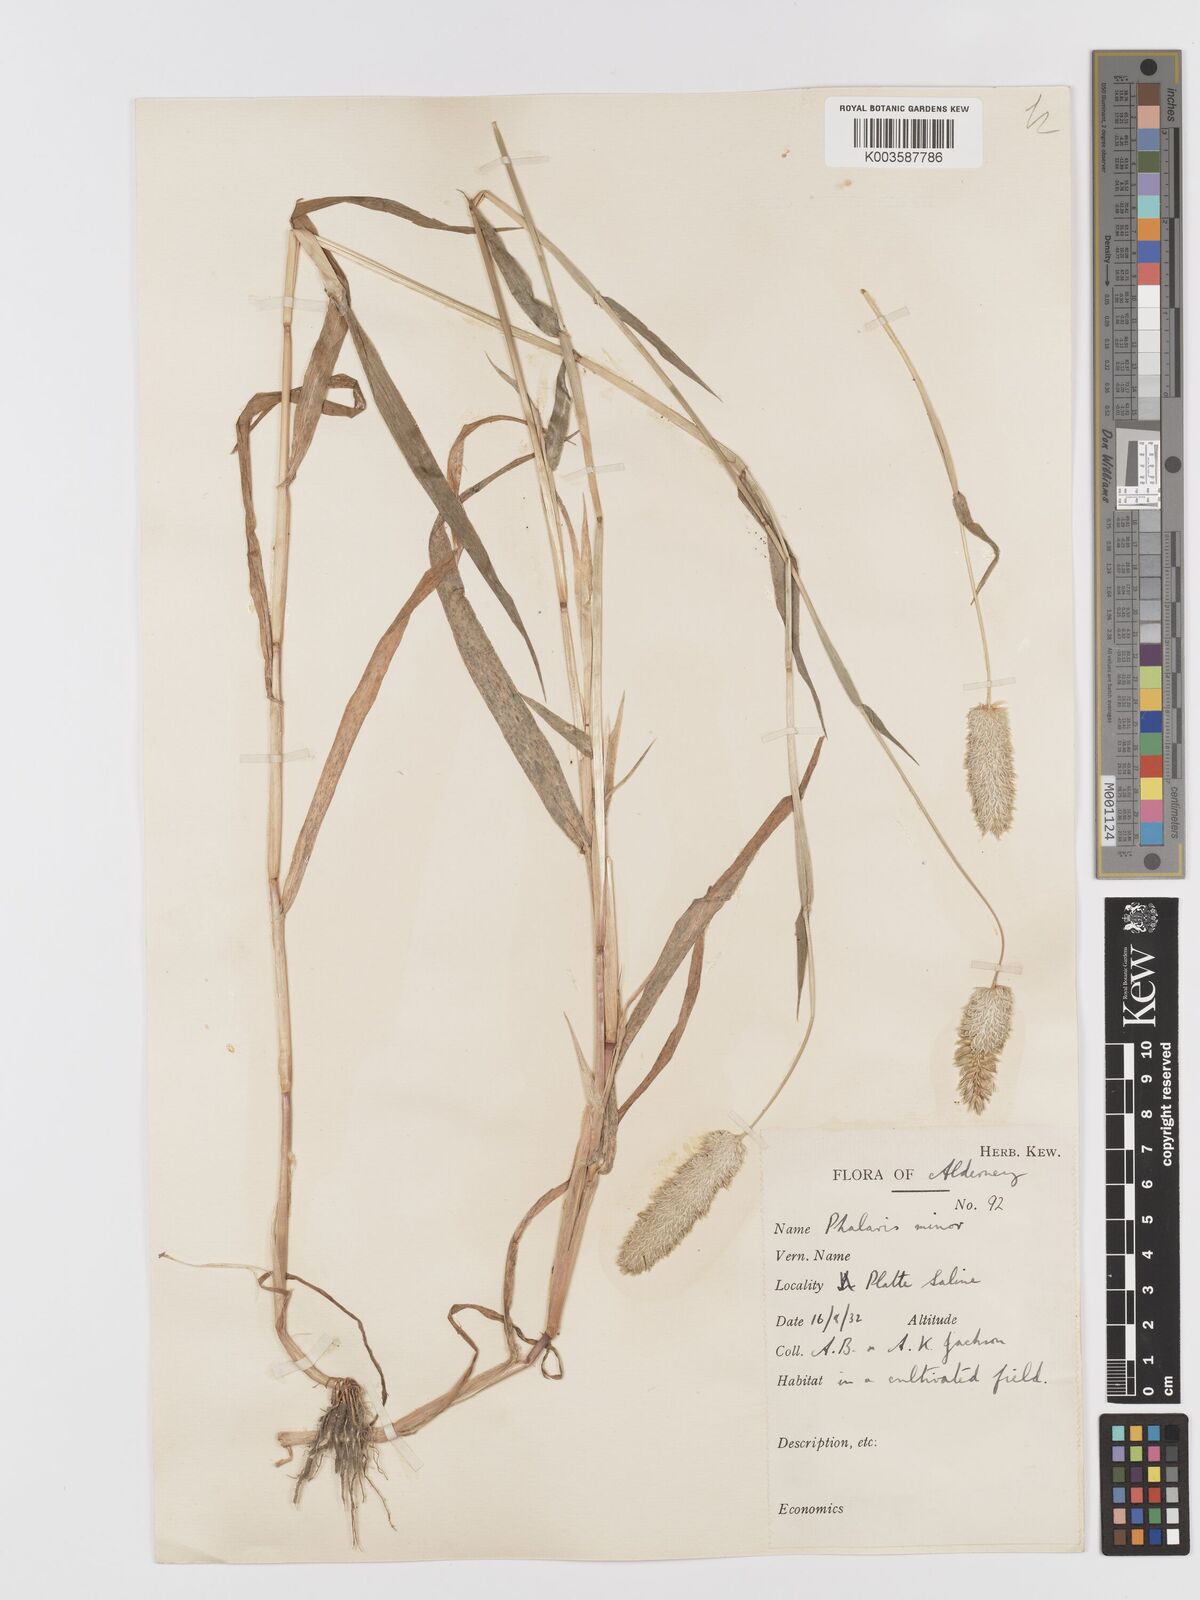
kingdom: Plantae
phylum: Tracheophyta
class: Liliopsida
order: Poales
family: Poaceae
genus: Phalaris
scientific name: Phalaris minor
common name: Littleseed canarygrass
